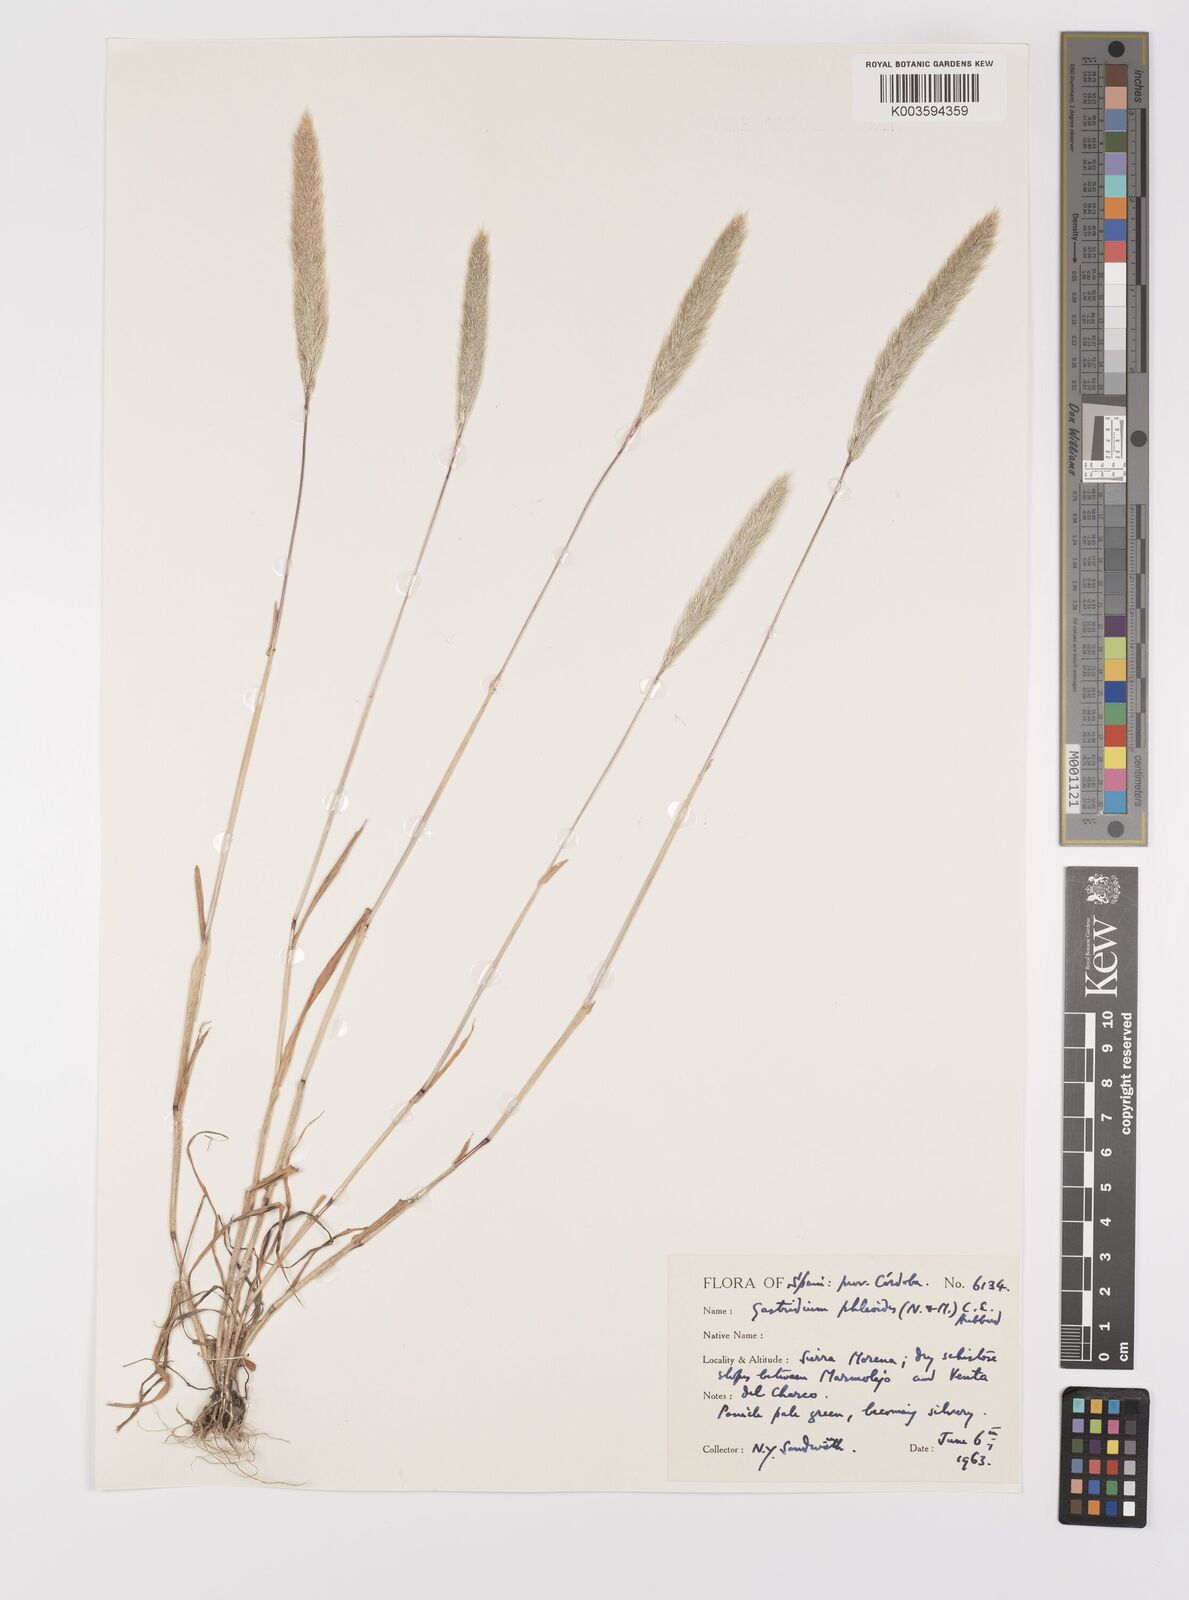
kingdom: Plantae
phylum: Tracheophyta
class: Liliopsida
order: Poales
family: Poaceae
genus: Gastridium
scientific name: Gastridium phleoides
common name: Nit grass
